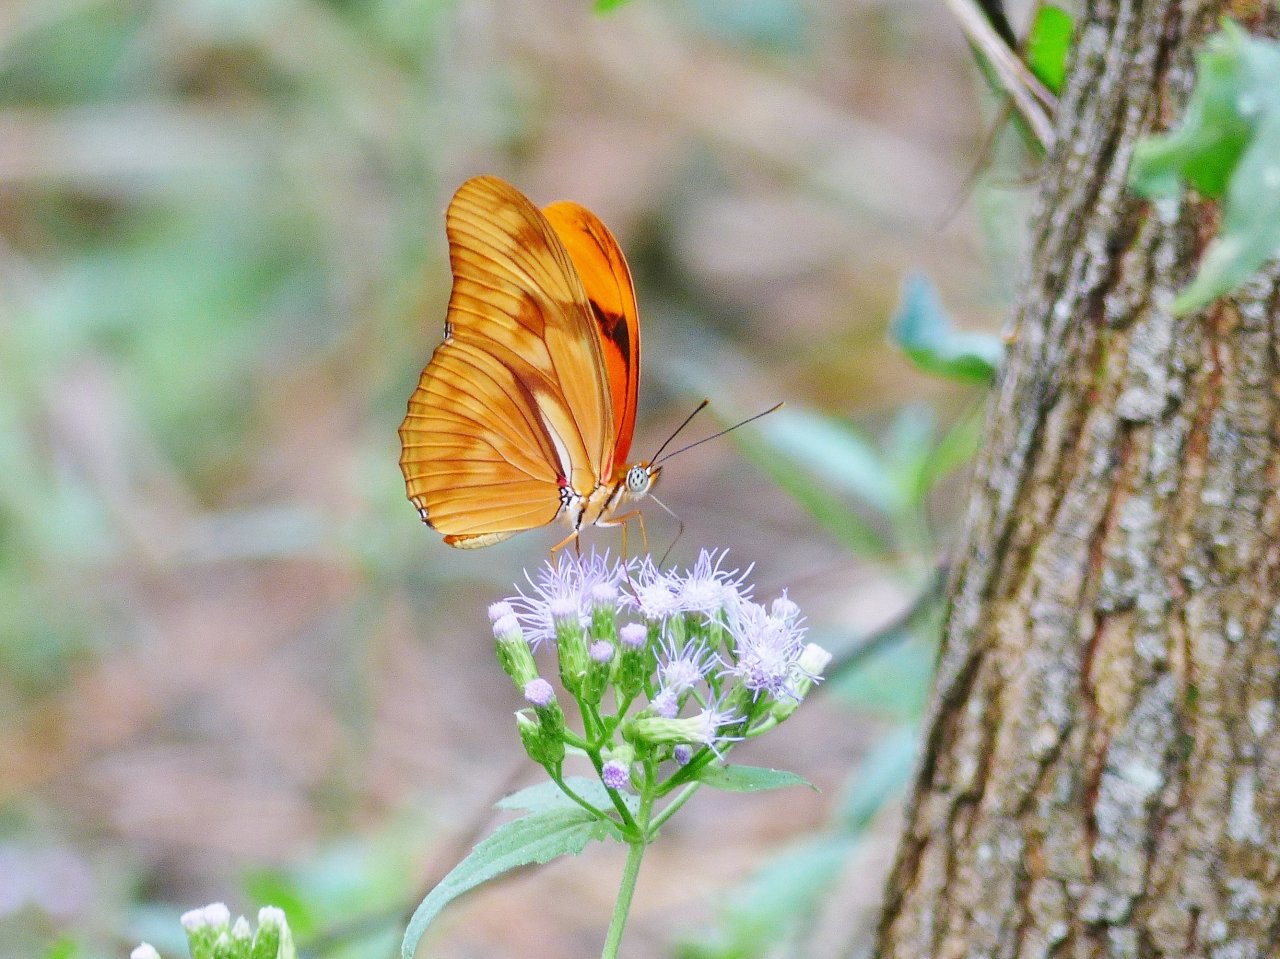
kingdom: Animalia
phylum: Arthropoda
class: Insecta
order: Lepidoptera
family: Nymphalidae
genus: Dryas
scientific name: Dryas iulia
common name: Julia
